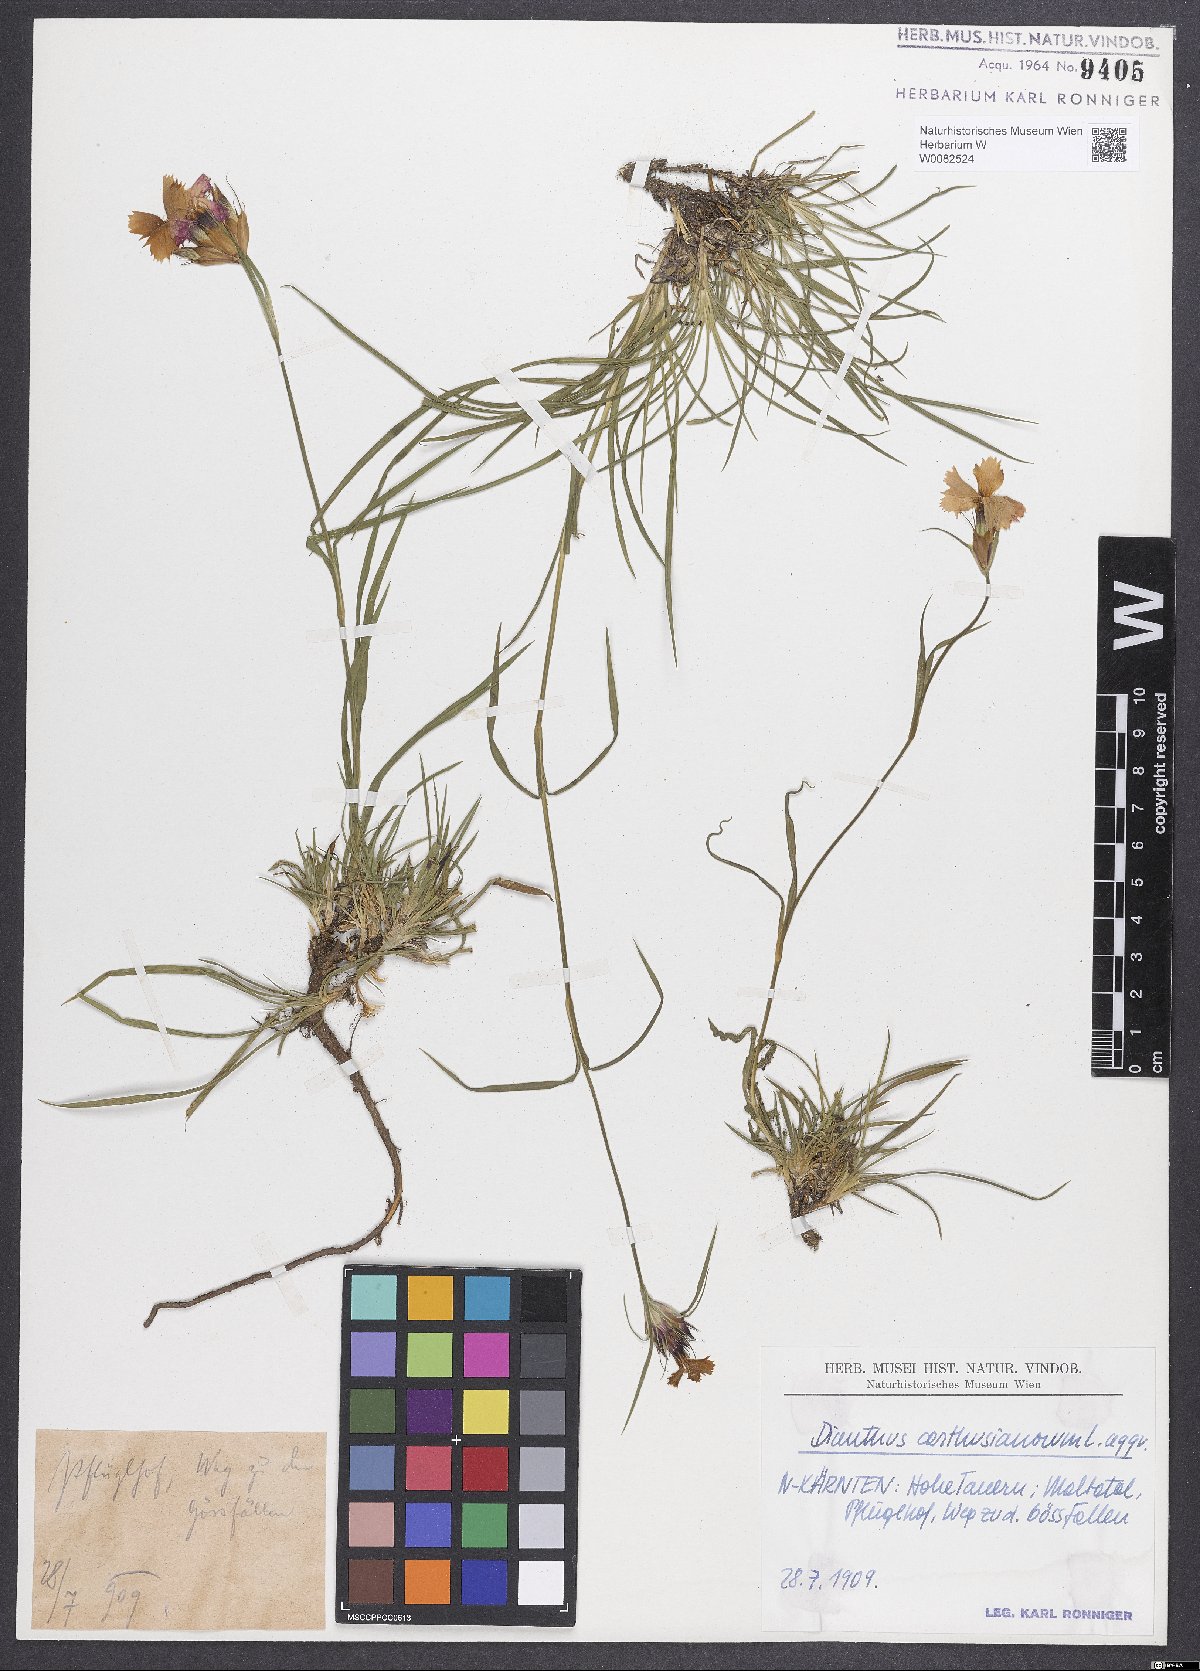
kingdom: Plantae
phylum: Tracheophyta
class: Magnoliopsida
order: Caryophyllales
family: Caryophyllaceae
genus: Dianthus
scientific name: Dianthus carthusianorum
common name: Carthusian pink
